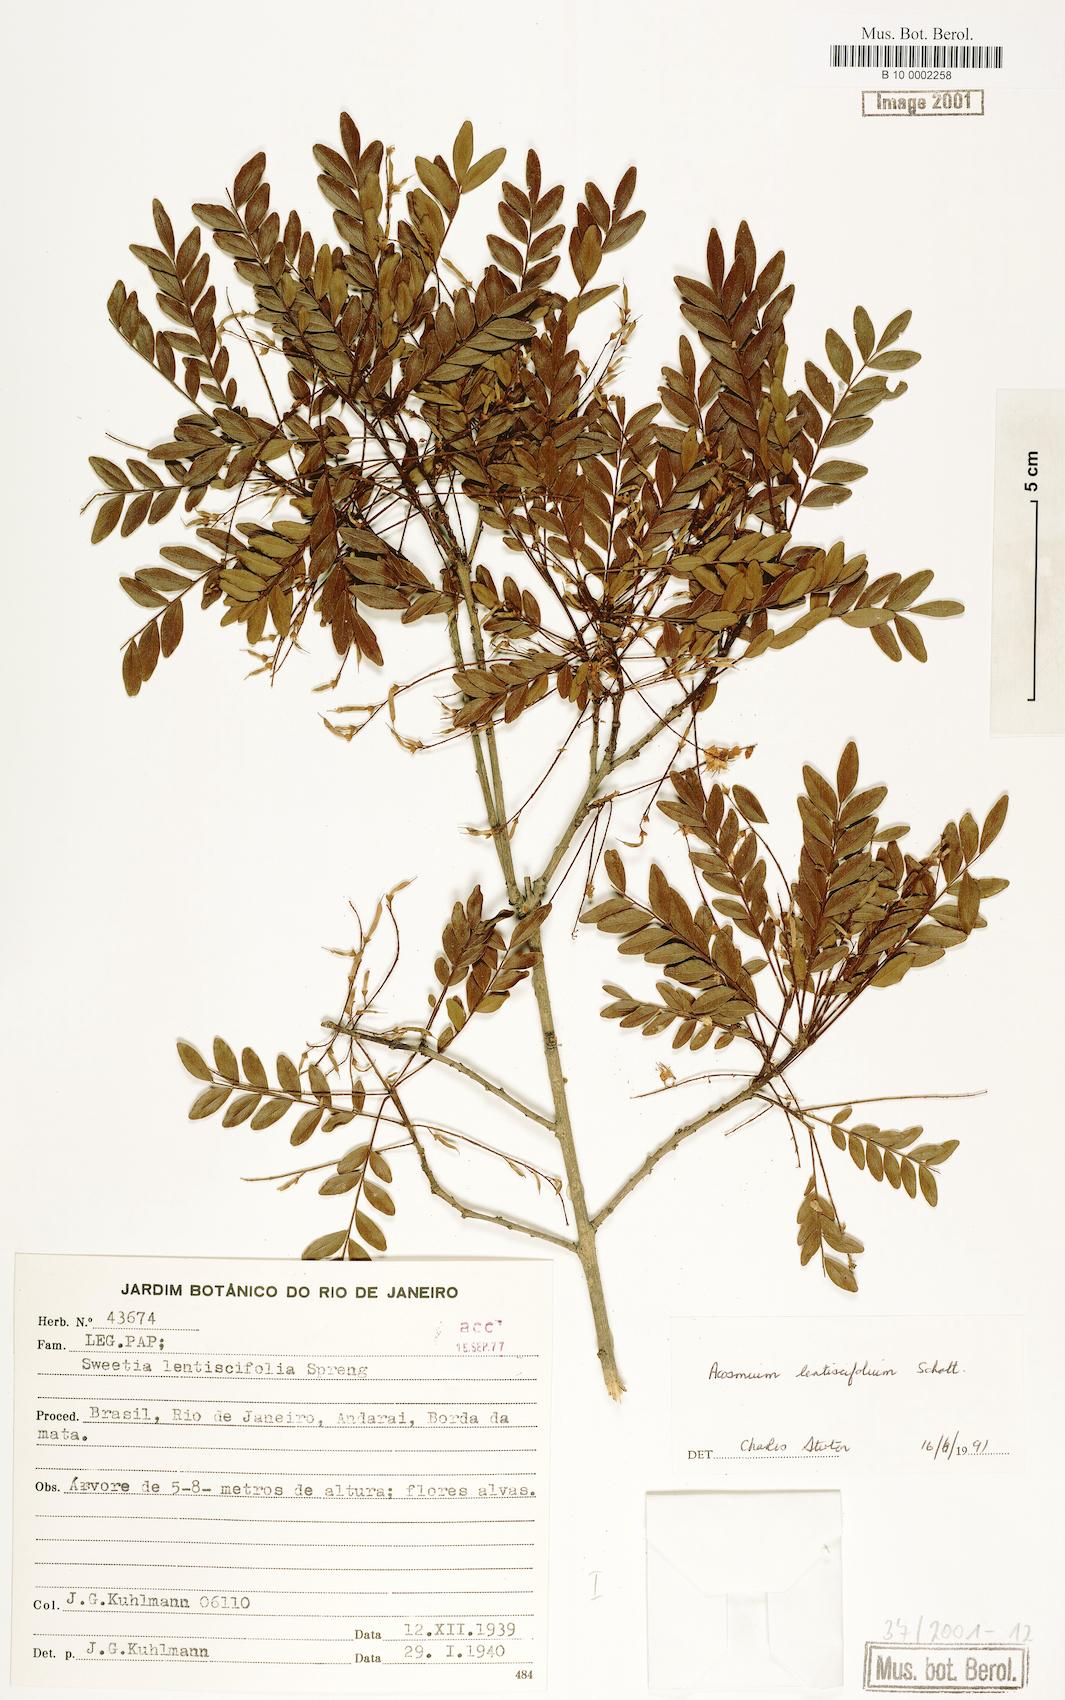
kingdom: Plantae
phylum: Tracheophyta
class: Magnoliopsida
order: Fabales
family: Fabaceae
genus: Acosmium
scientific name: Acosmium lentiscifolium
